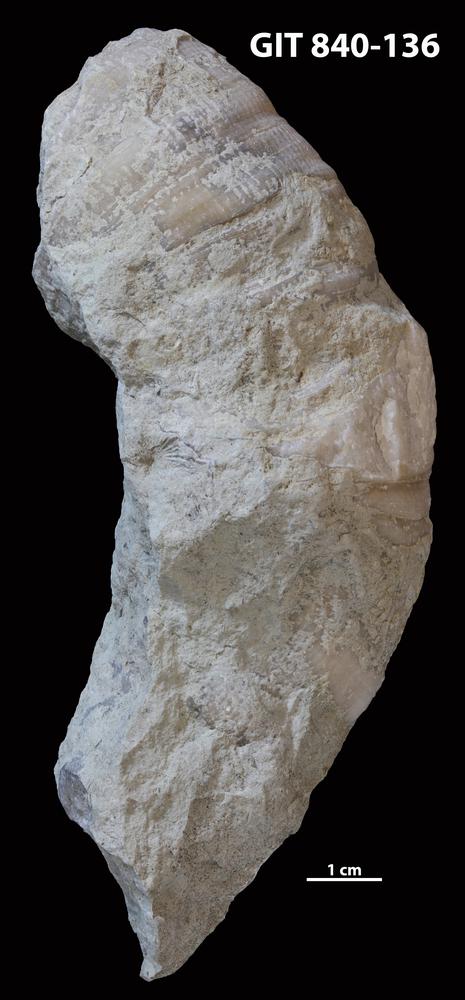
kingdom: Animalia
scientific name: Animalia
